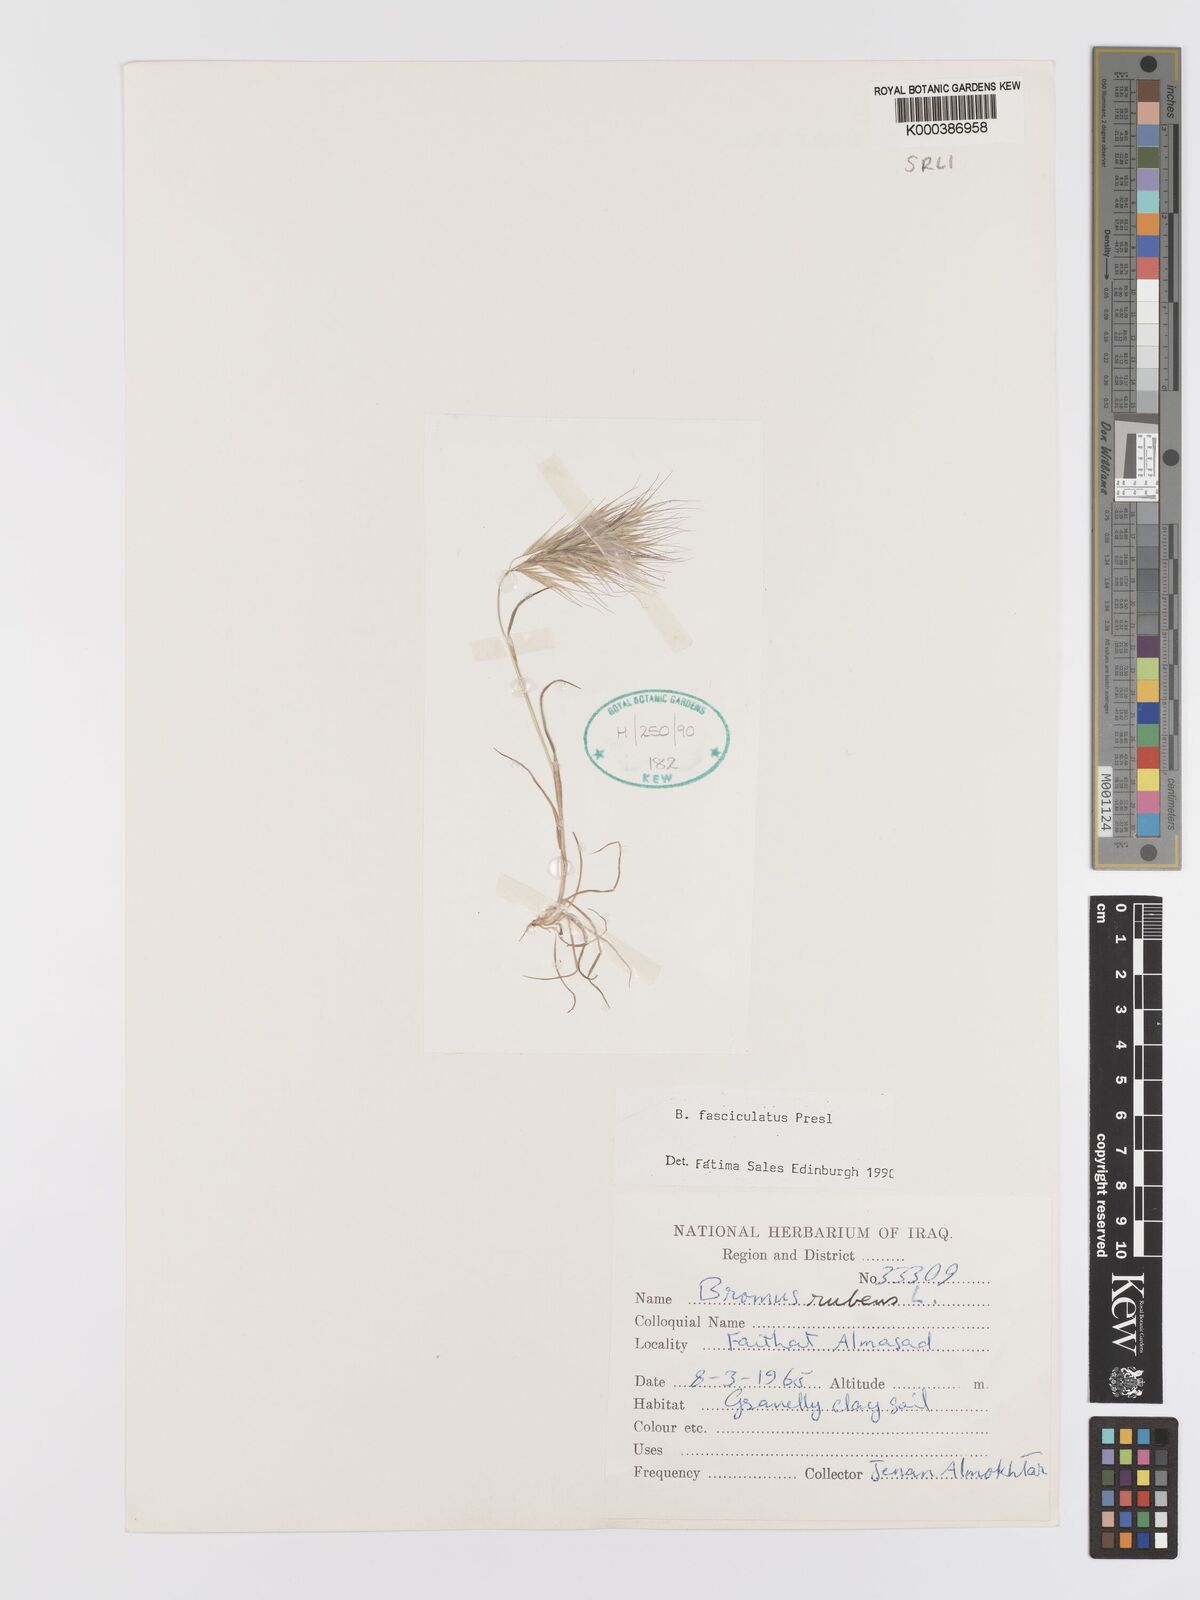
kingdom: Plantae
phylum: Tracheophyta
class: Liliopsida
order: Poales
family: Poaceae
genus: Bromus
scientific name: Bromus fasciculatus
